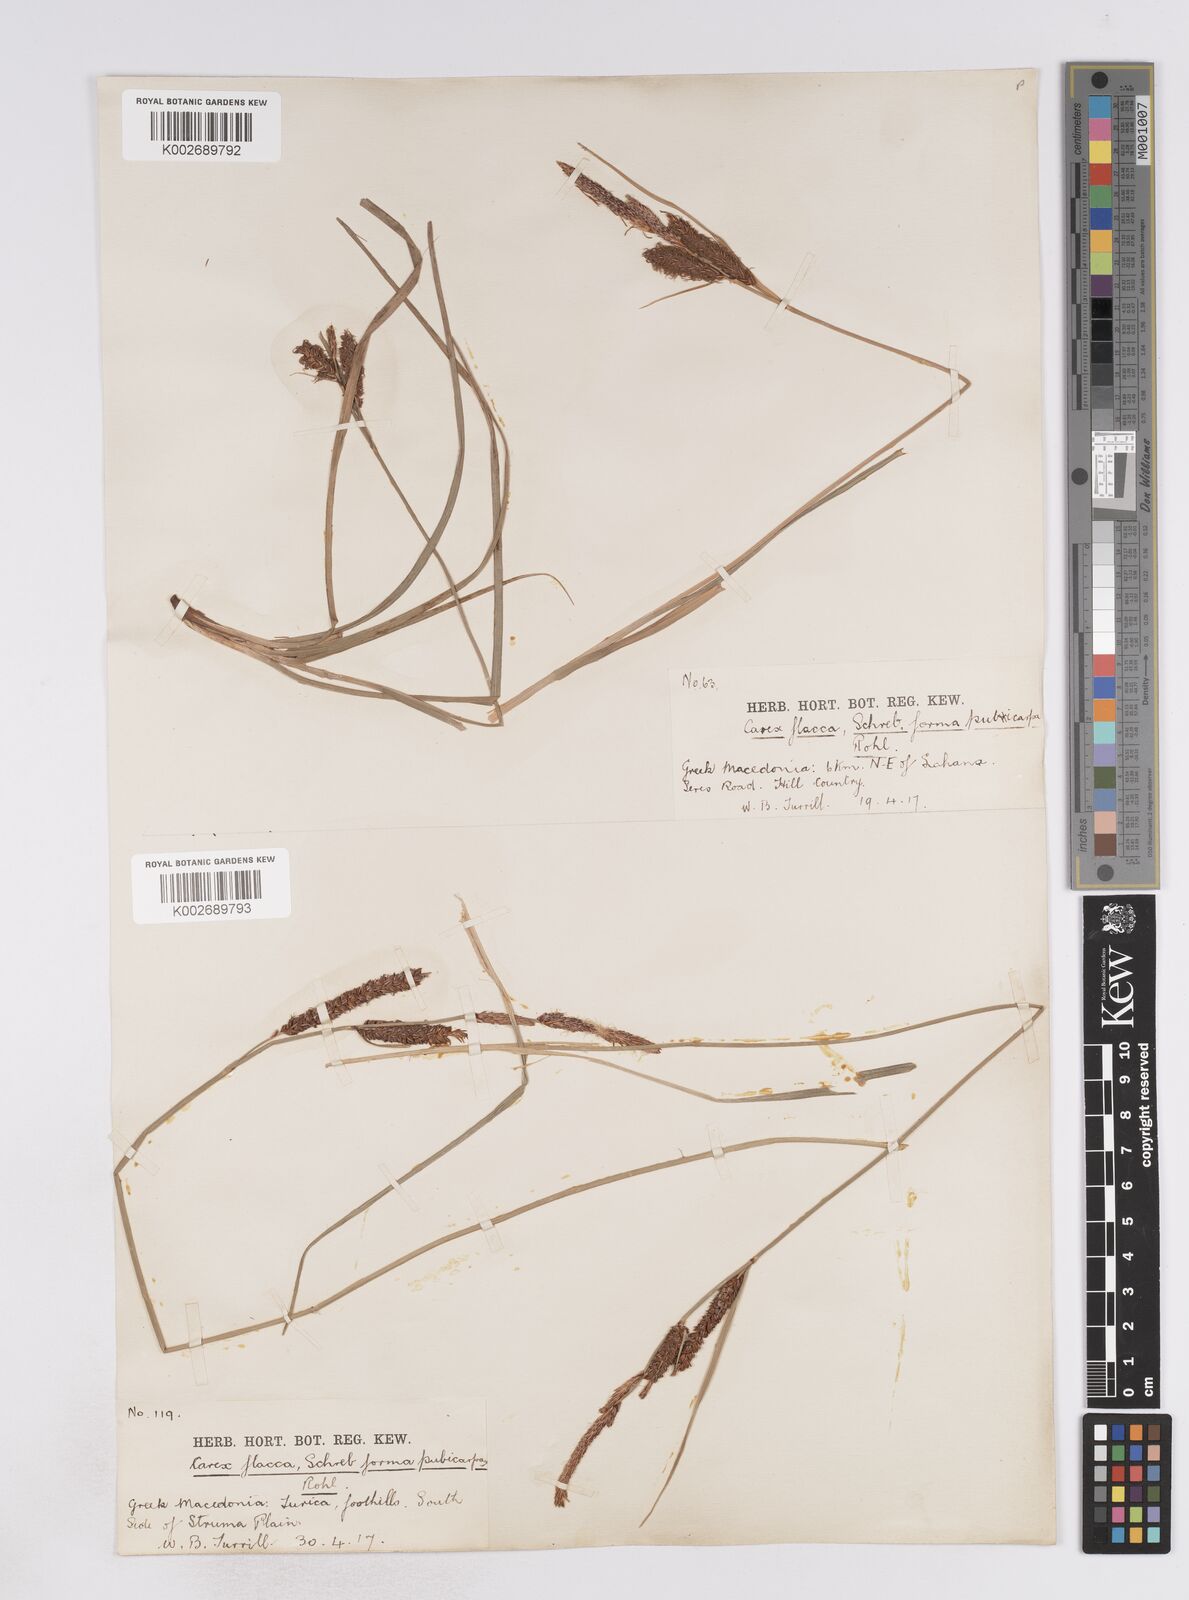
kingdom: Plantae
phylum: Tracheophyta
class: Liliopsida
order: Poales
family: Cyperaceae
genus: Carex
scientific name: Carex flacca
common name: Glaucous sedge
